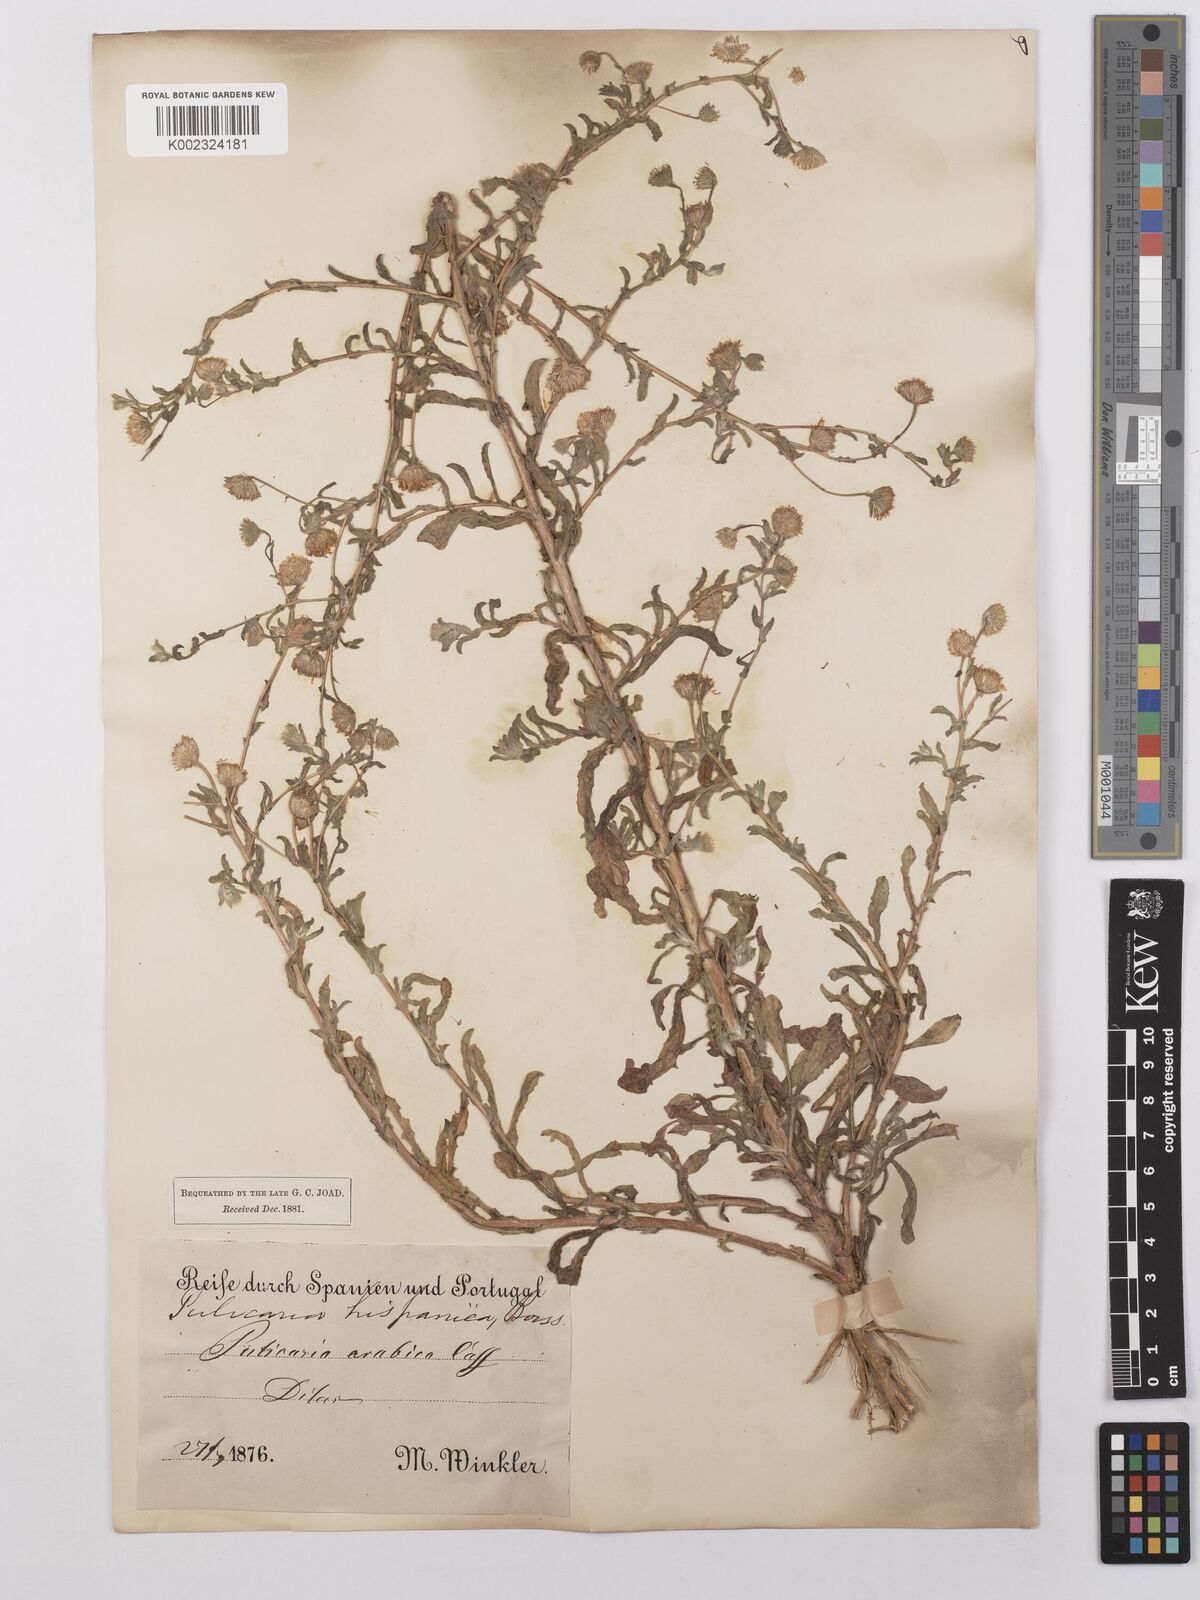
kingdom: Plantae
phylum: Tracheophyta
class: Magnoliopsida
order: Asterales
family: Asteraceae
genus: Pulicaria
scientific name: Pulicaria arabica
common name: Ladies' false fleabane
